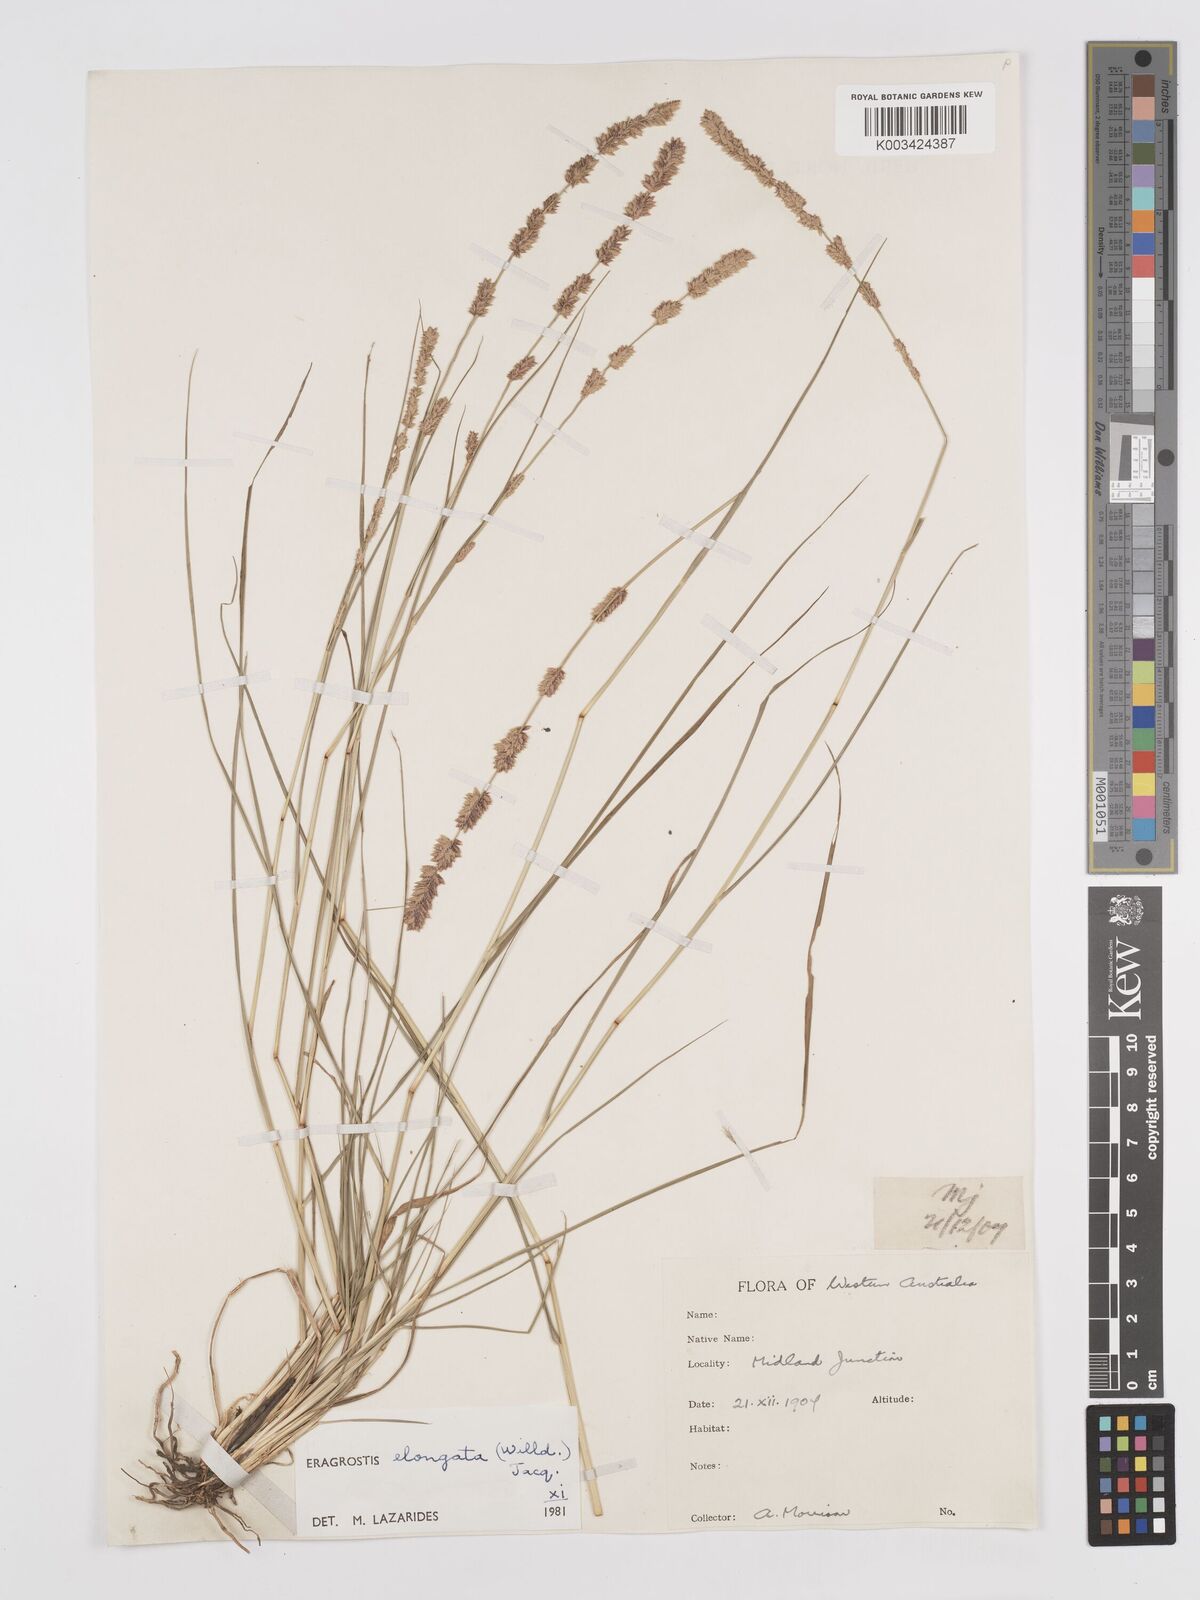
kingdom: Plantae
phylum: Tracheophyta
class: Liliopsida
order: Poales
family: Poaceae
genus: Eragrostis
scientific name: Eragrostis elongata
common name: Long lovegrass
